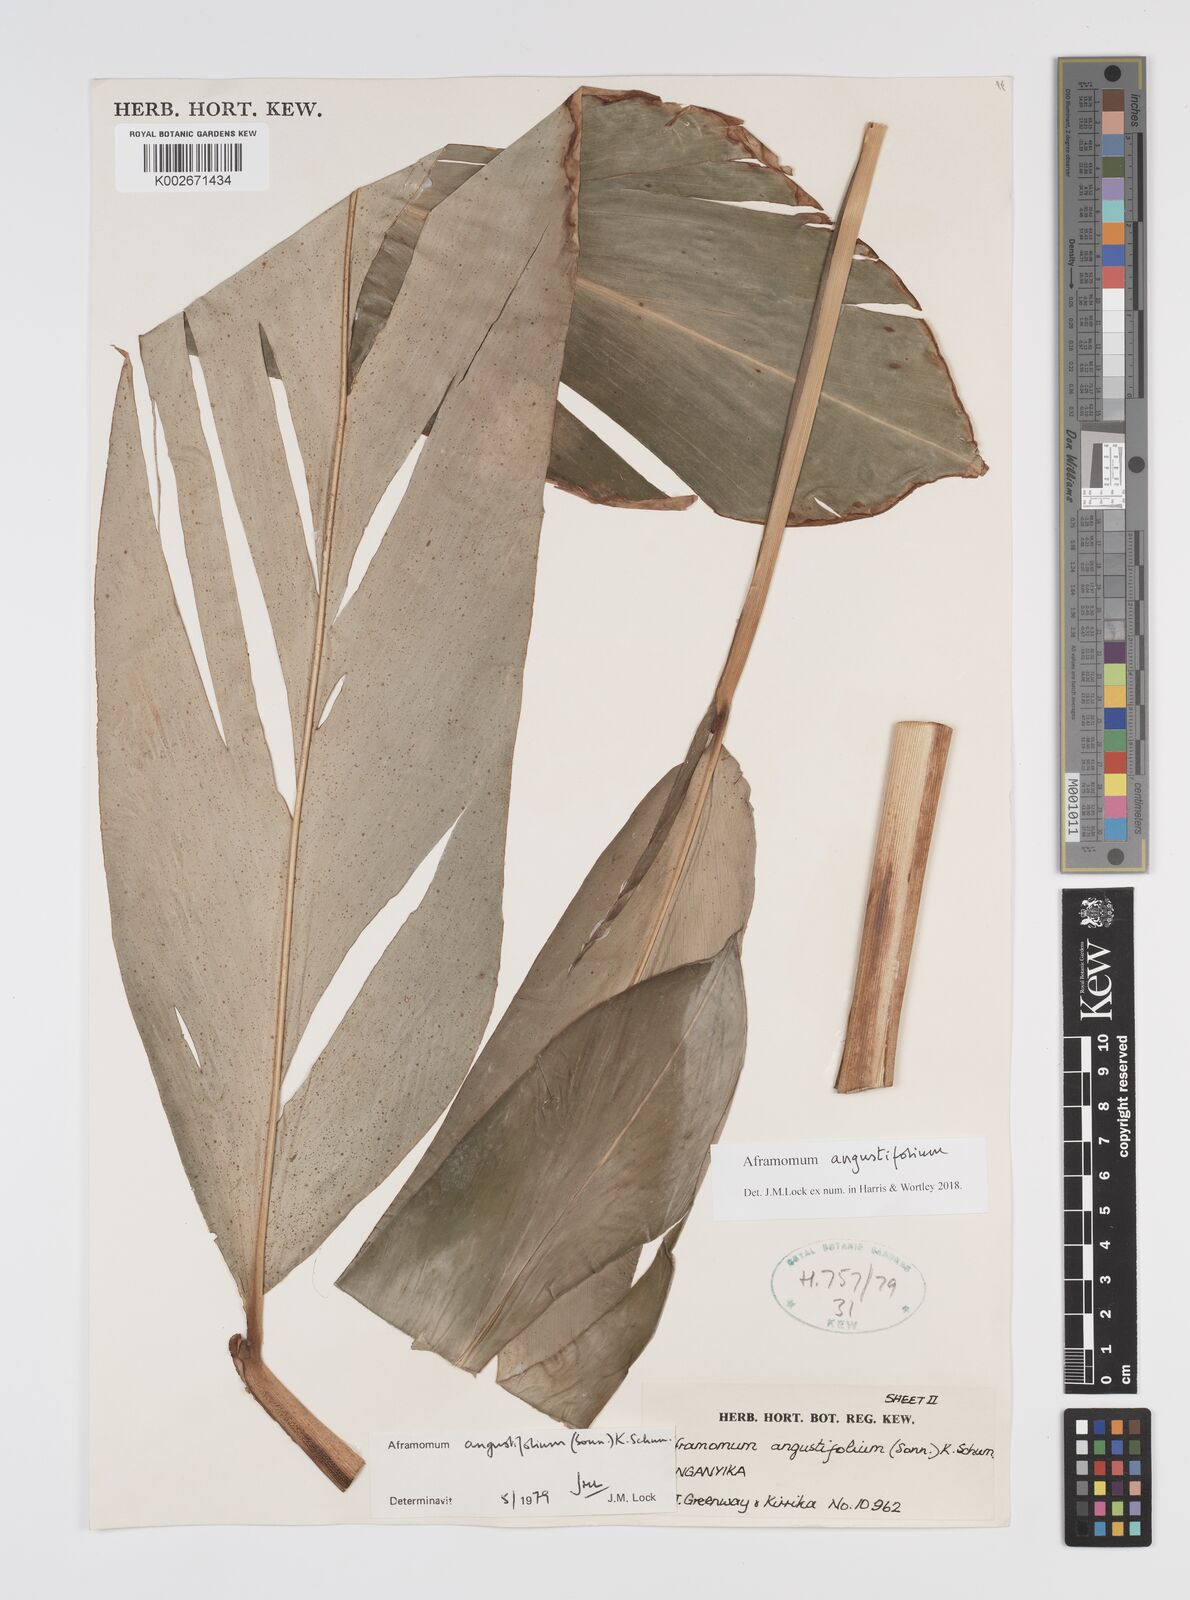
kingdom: Plantae
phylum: Tracheophyta
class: Liliopsida
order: Zingiberales
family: Zingiberaceae
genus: Aframomum
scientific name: Aframomum angustifolium
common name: Guinea grains
